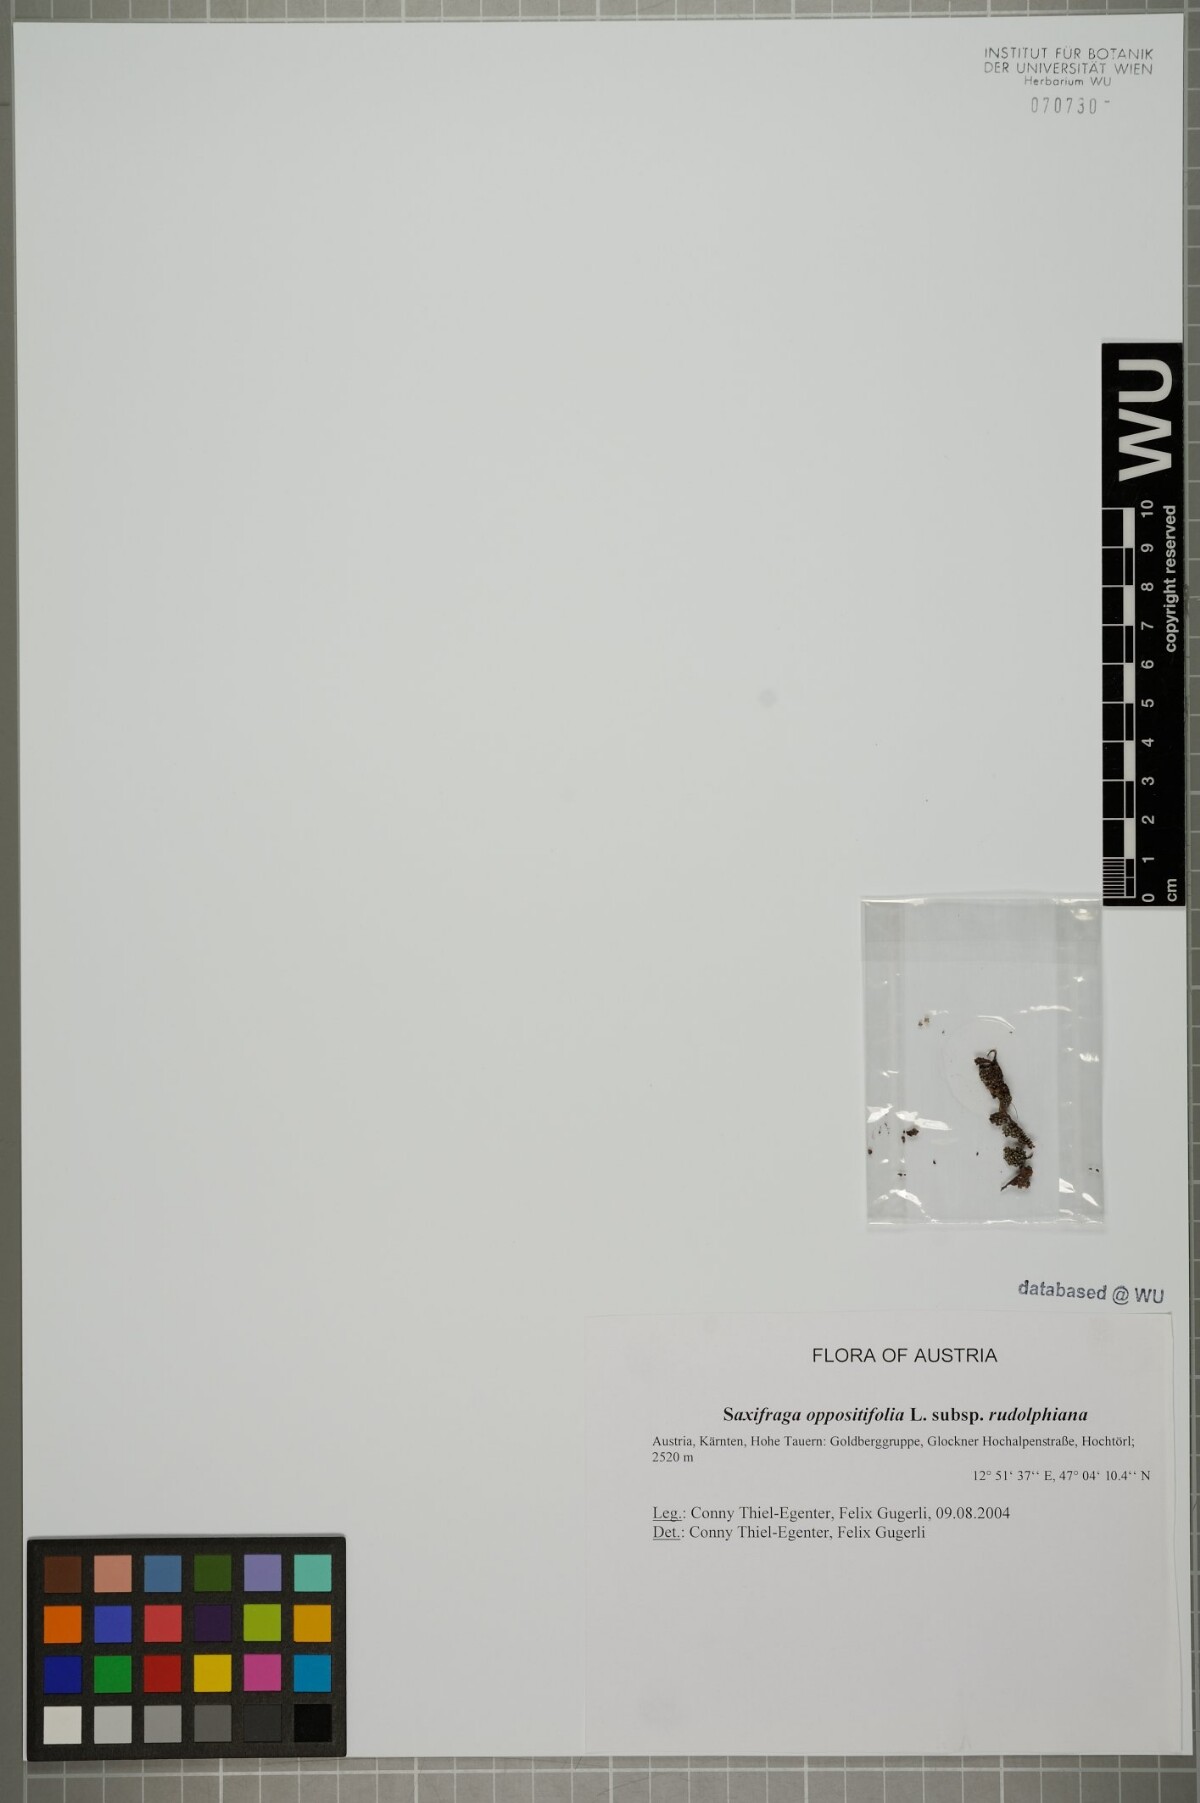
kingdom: Plantae
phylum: Tracheophyta
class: Magnoliopsida
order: Saxifragales
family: Saxifragaceae
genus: Saxifraga
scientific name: Saxifraga oppositifolia
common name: Purple saxifrage
